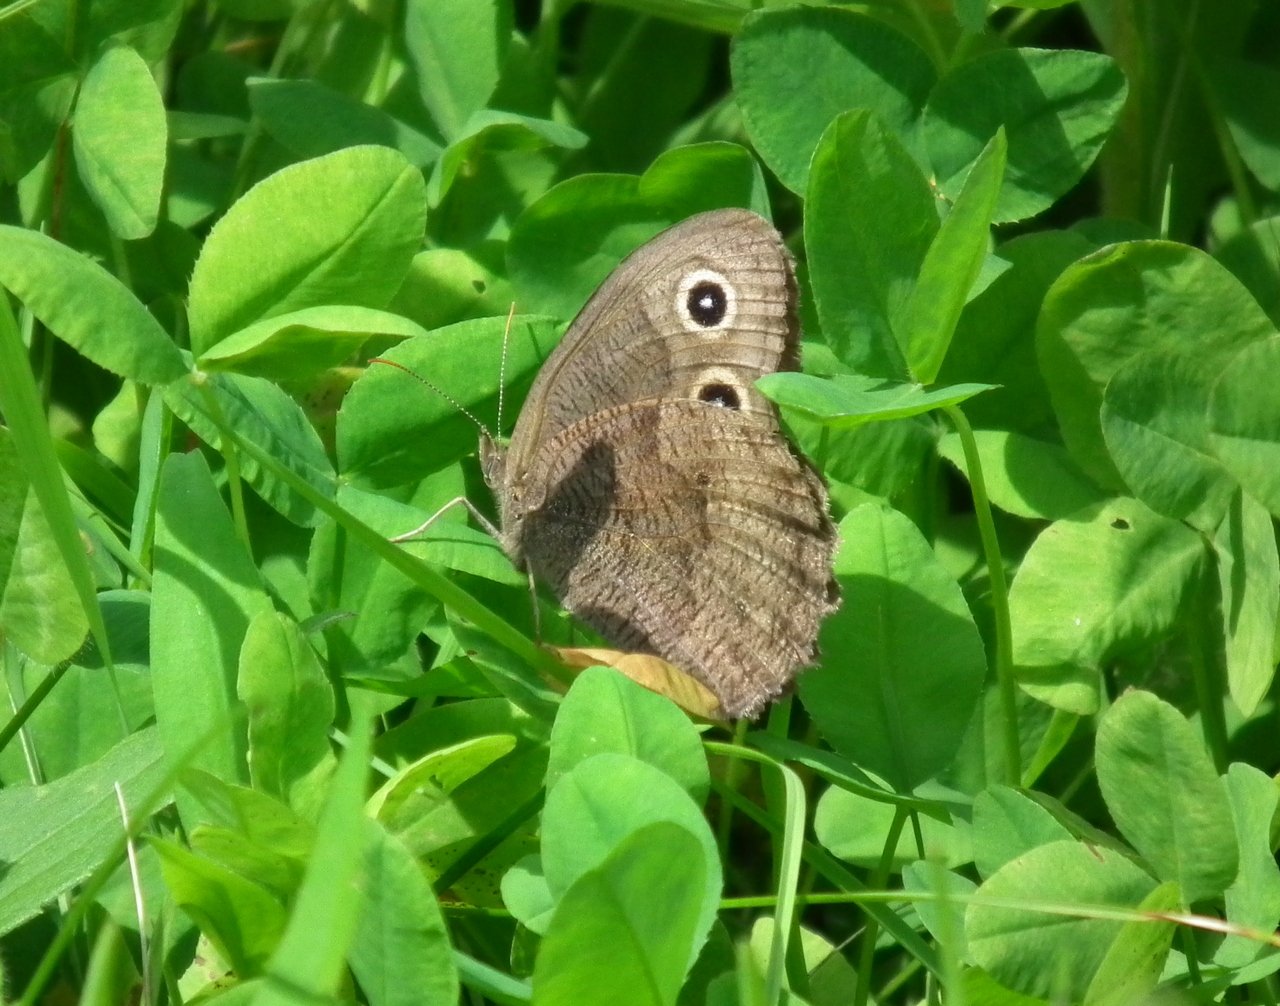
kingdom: Animalia
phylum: Arthropoda
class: Insecta
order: Lepidoptera
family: Nymphalidae
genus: Cercyonis
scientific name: Cercyonis pegala
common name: Common Wood-Nymph
